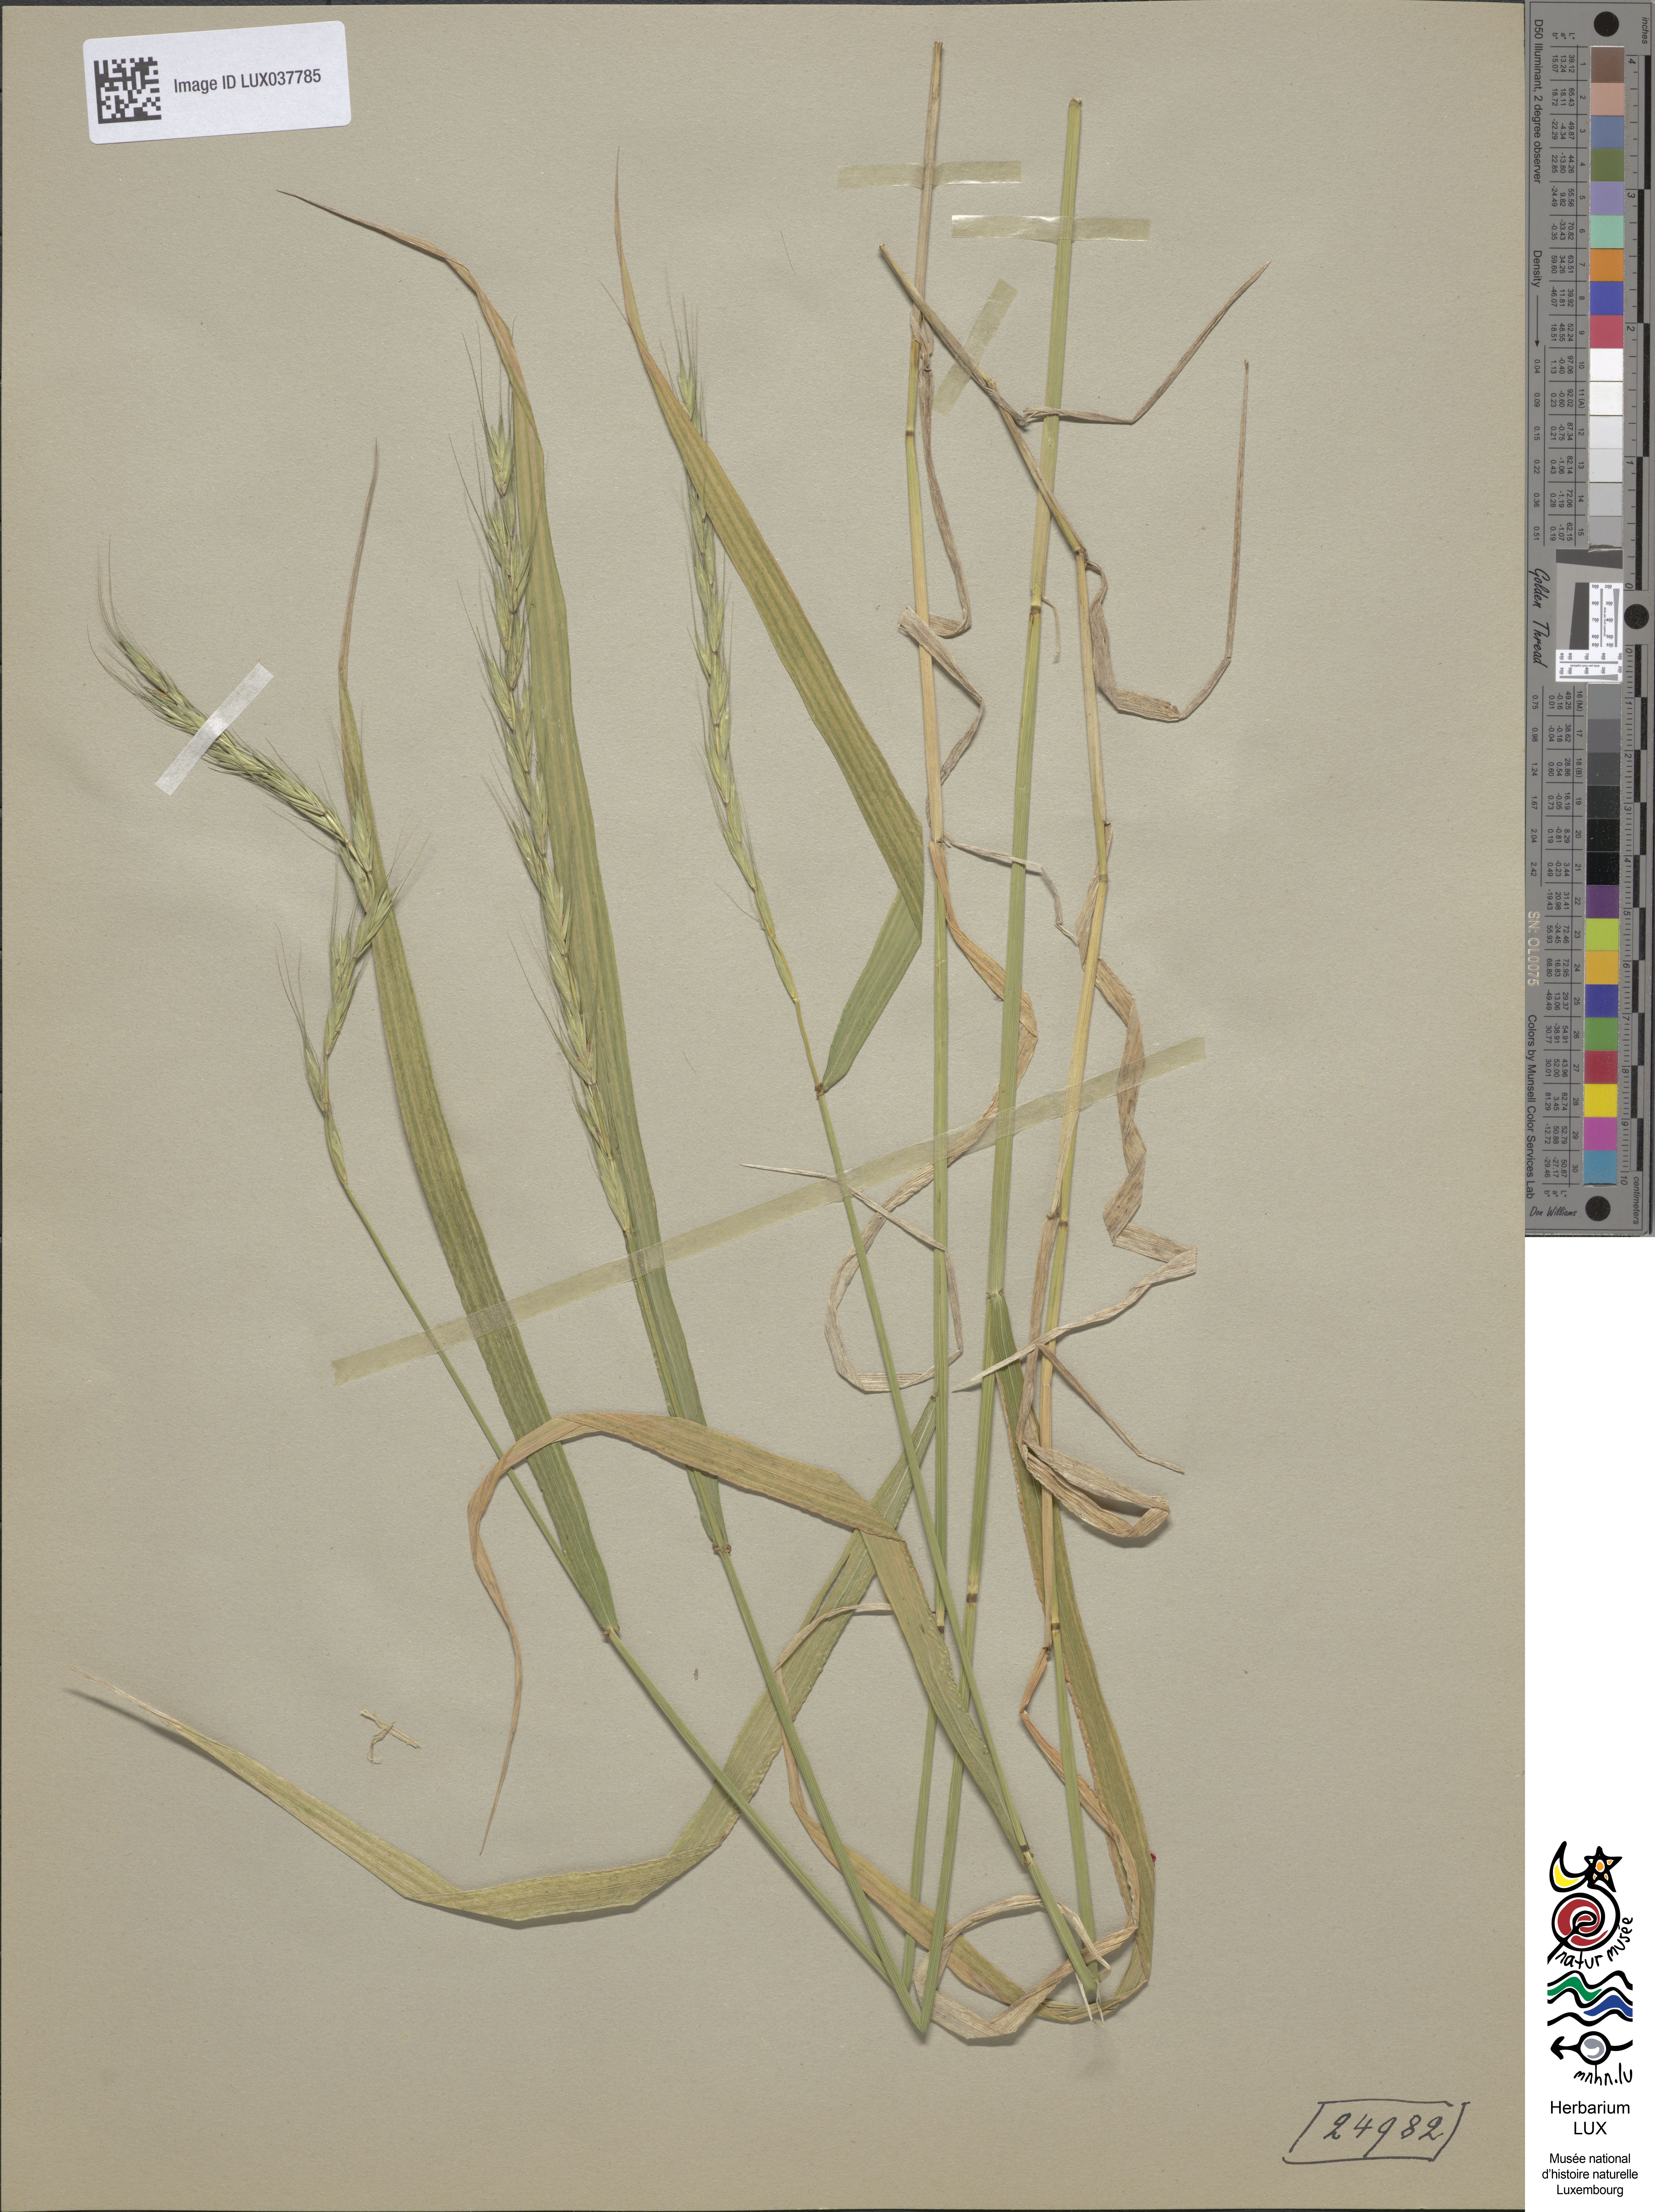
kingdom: Plantae
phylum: Tracheophyta
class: Liliopsida
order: Poales
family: Poaceae
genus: Elymus
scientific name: Elymus caninus
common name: Bearded couch
